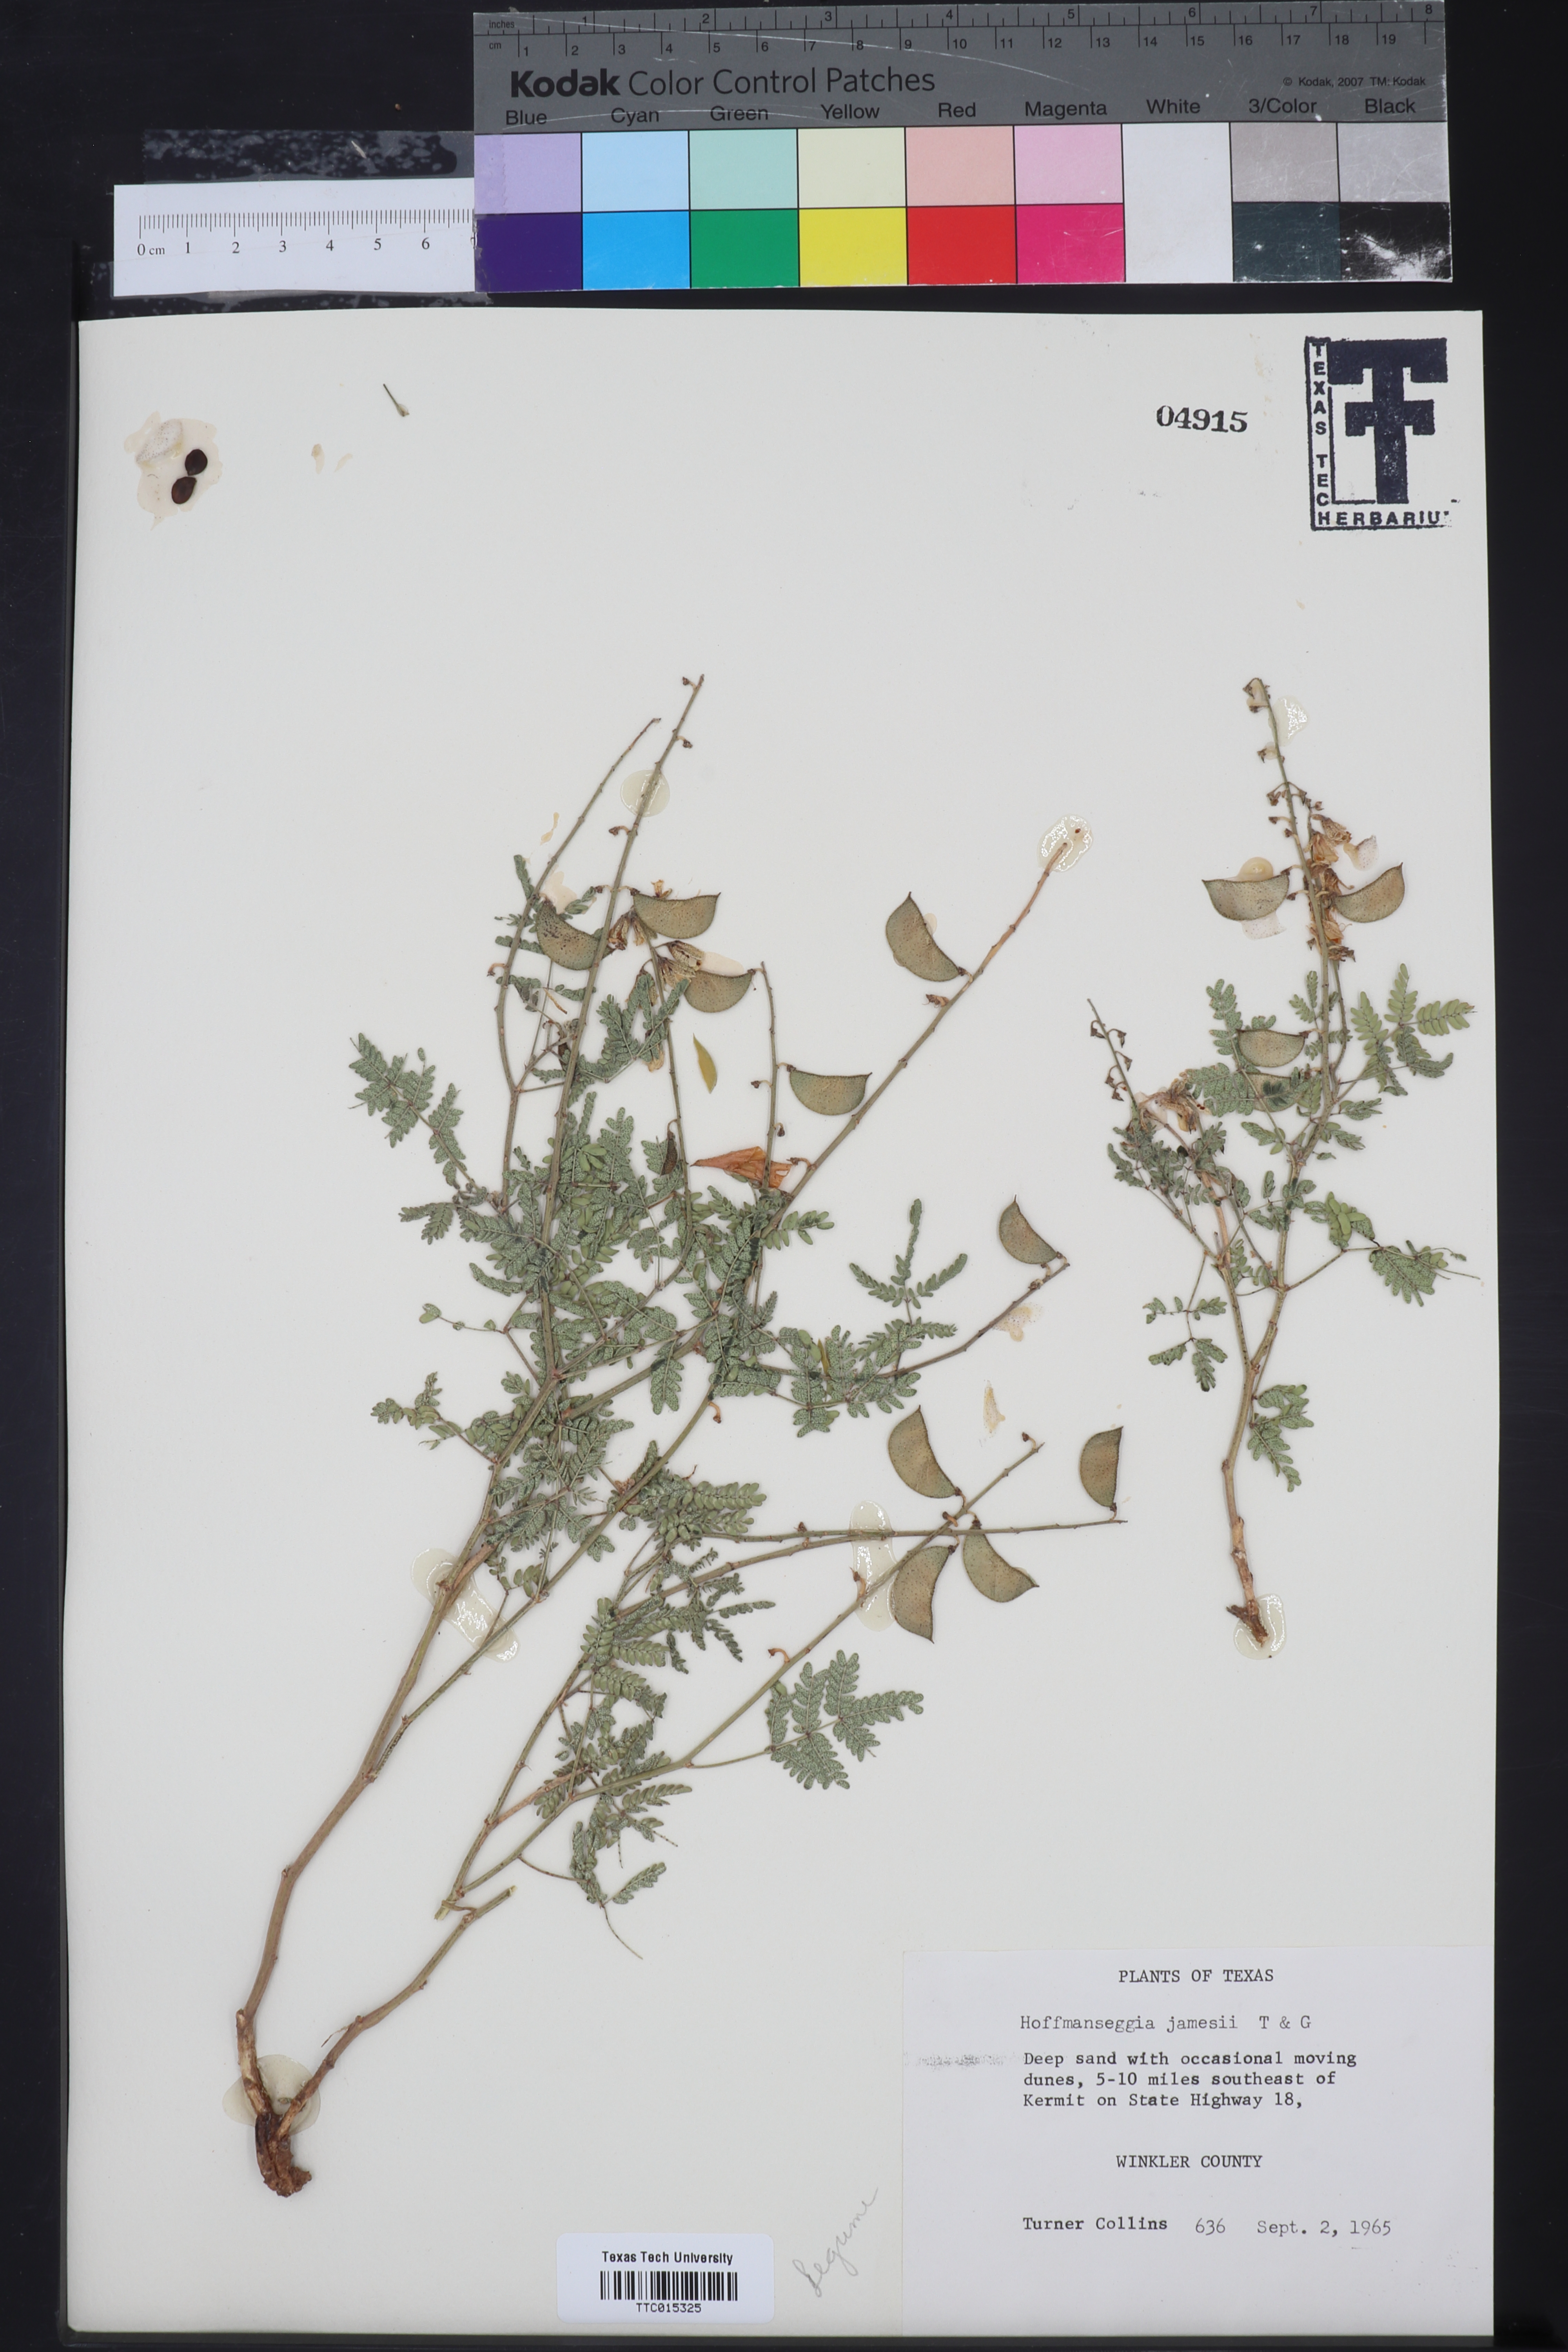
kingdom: Plantae
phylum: Tracheophyta
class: Magnoliopsida
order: Fabales
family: Fabaceae
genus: Pomaria
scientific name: Pomaria jamesii
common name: James' caesalpinia
